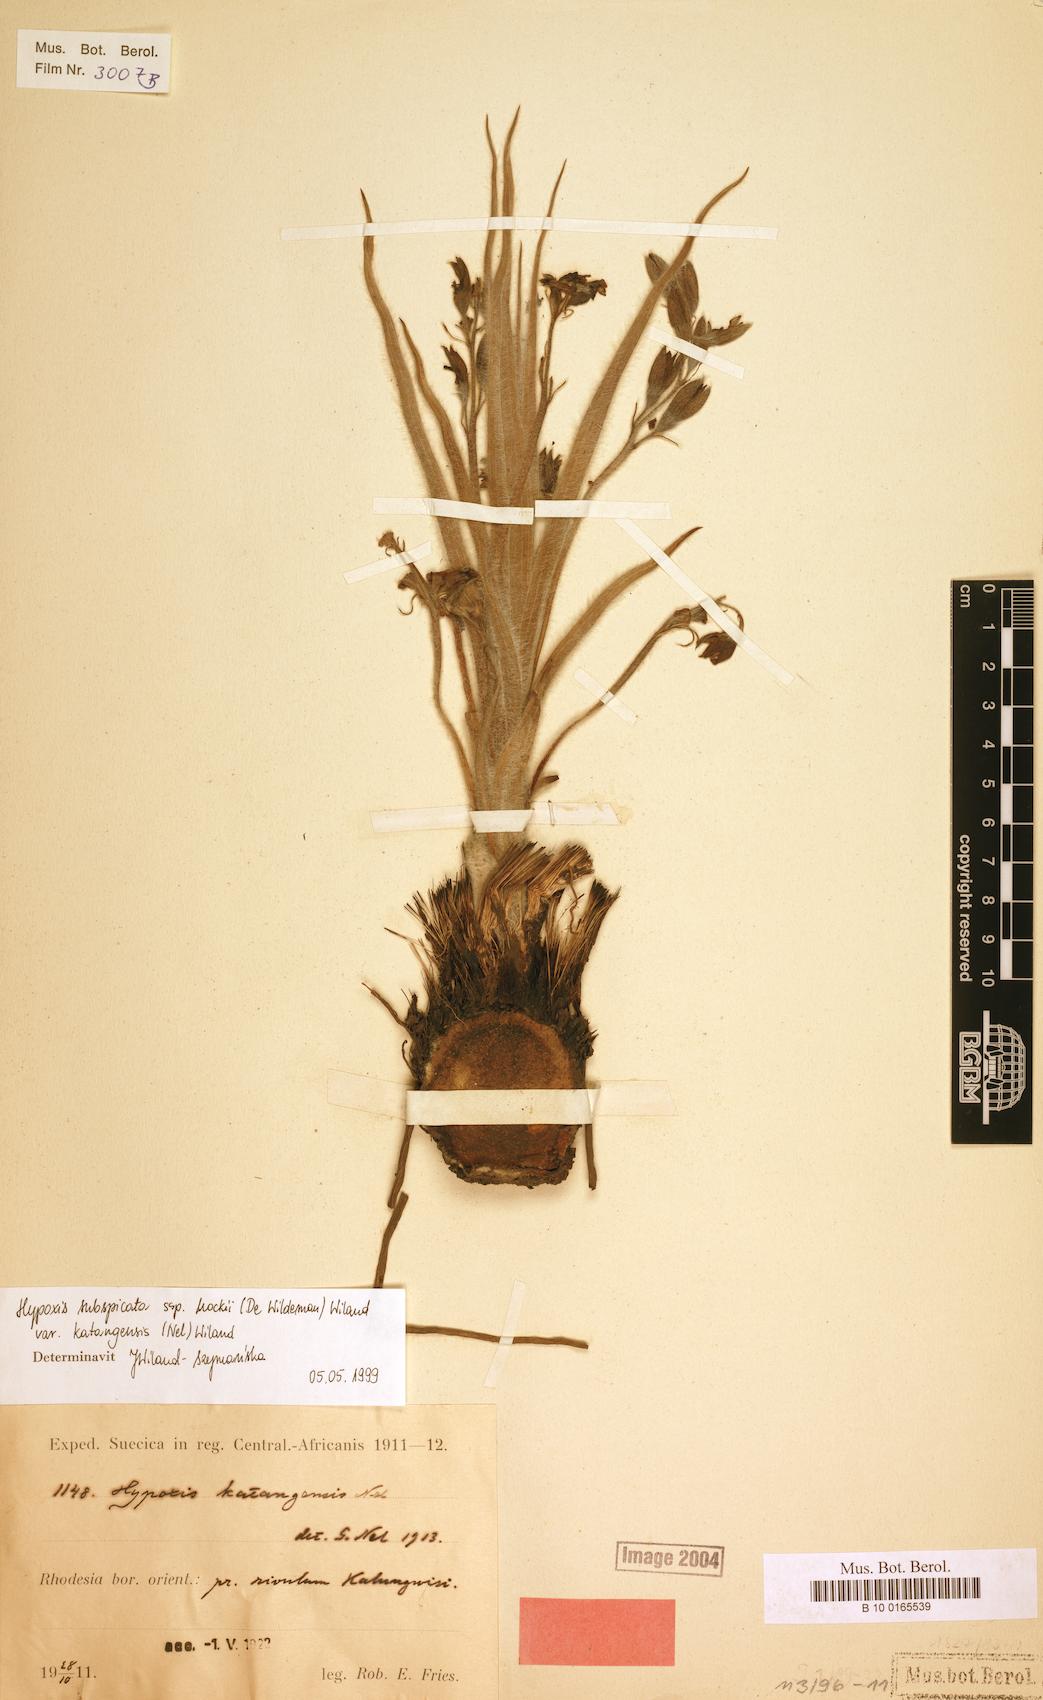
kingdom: Plantae
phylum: Tracheophyta
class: Liliopsida
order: Asparagales
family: Hypoxidaceae
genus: Hypoxis
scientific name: Hypoxis polystachya
